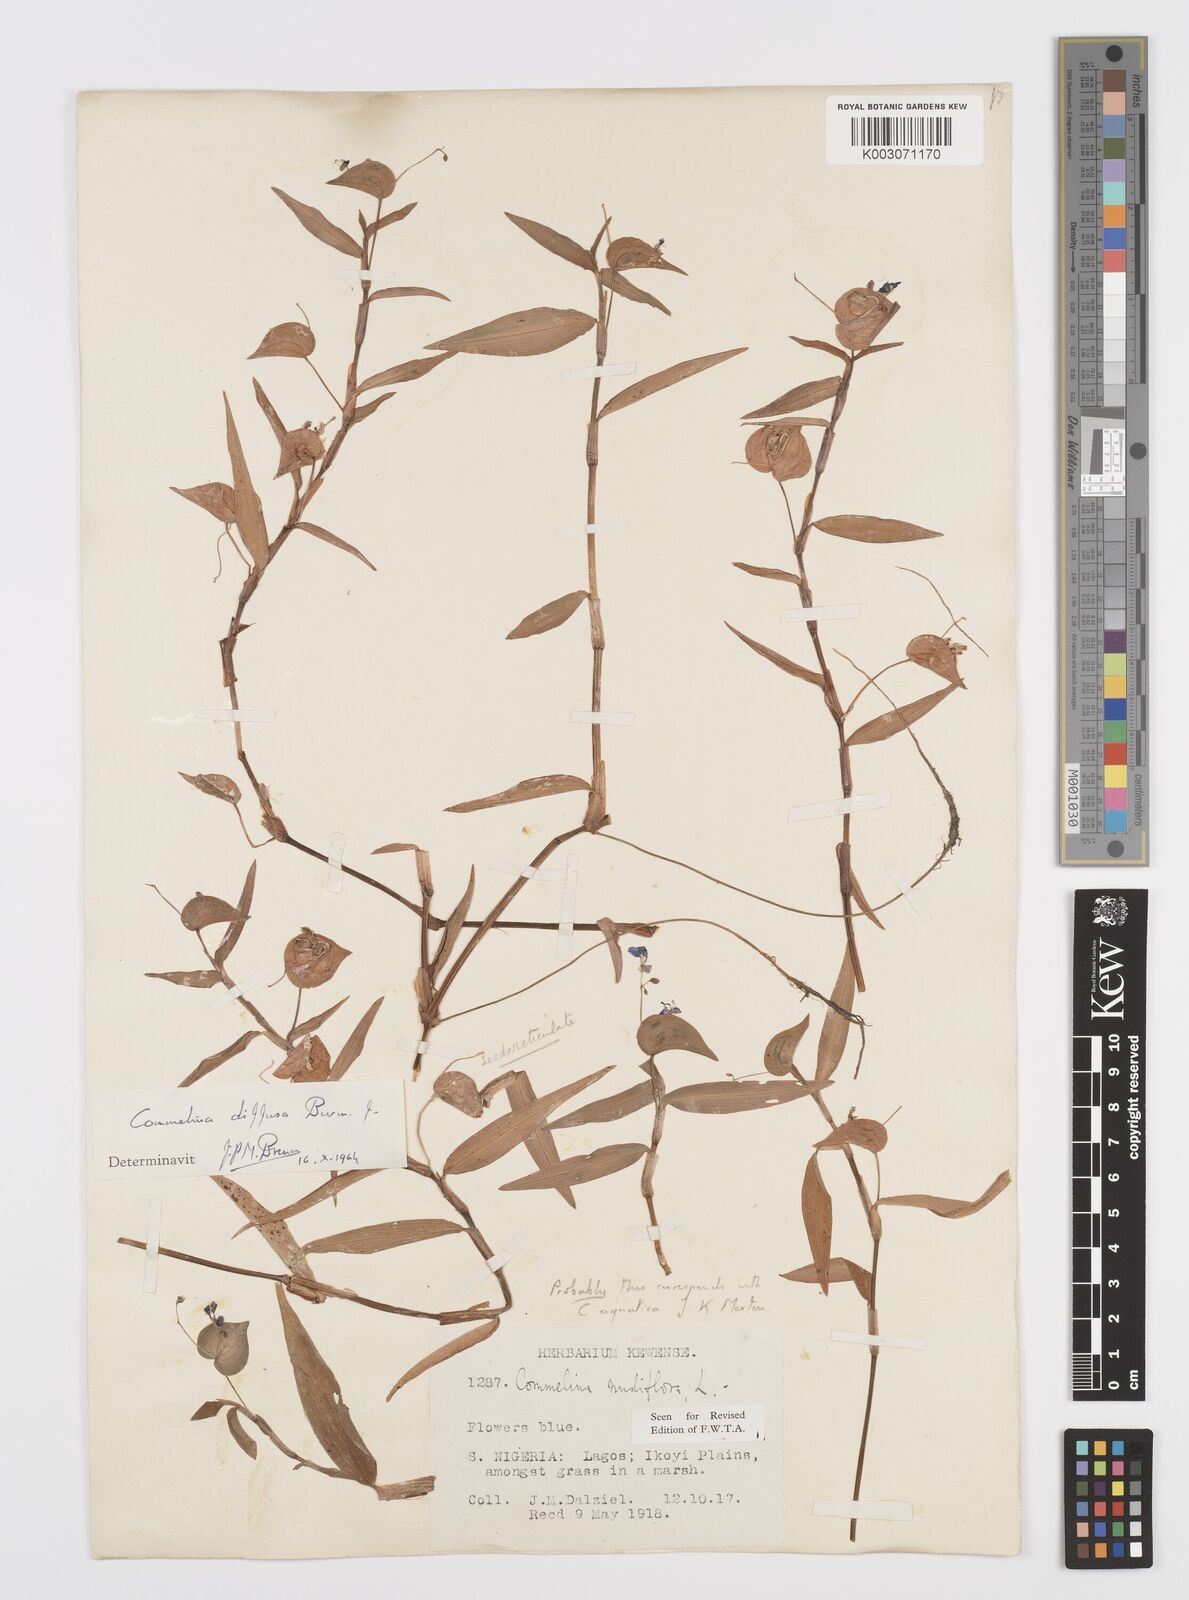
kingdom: Plantae
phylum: Tracheophyta
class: Liliopsida
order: Commelinales
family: Commelinaceae
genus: Commelina
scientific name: Commelina diffusa
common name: Climbing dayflower
